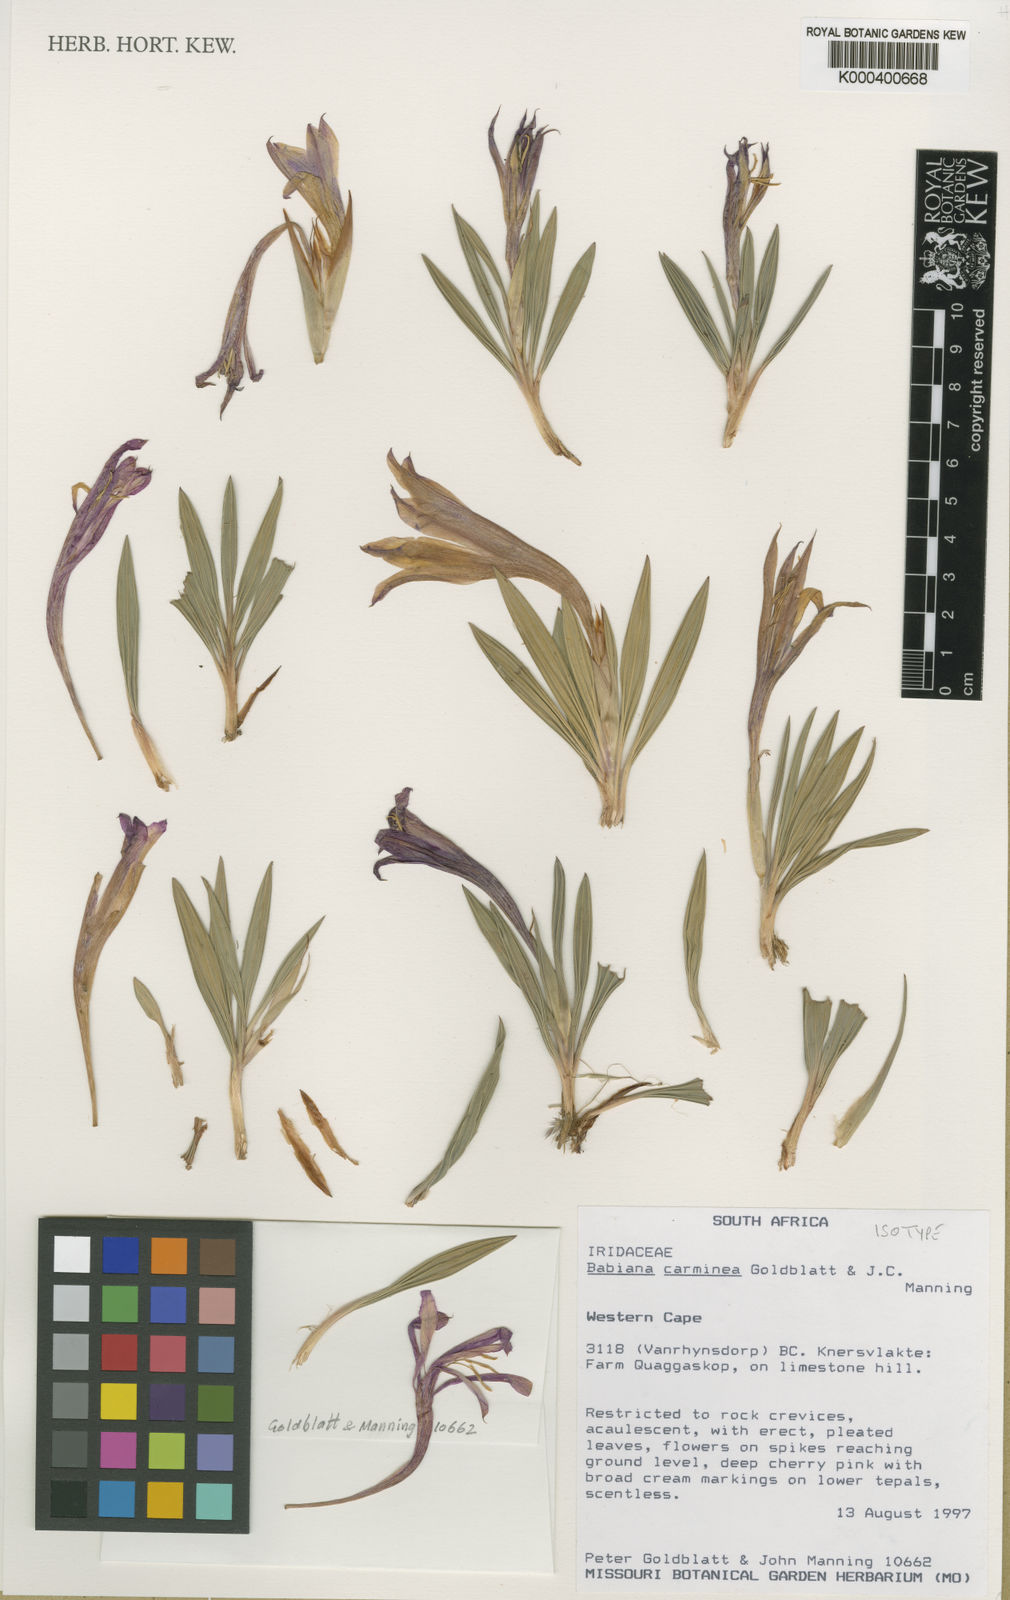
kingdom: Plantae
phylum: Tracheophyta
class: Liliopsida
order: Asparagales
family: Iridaceae
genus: Babiana
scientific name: Babiana carminea
